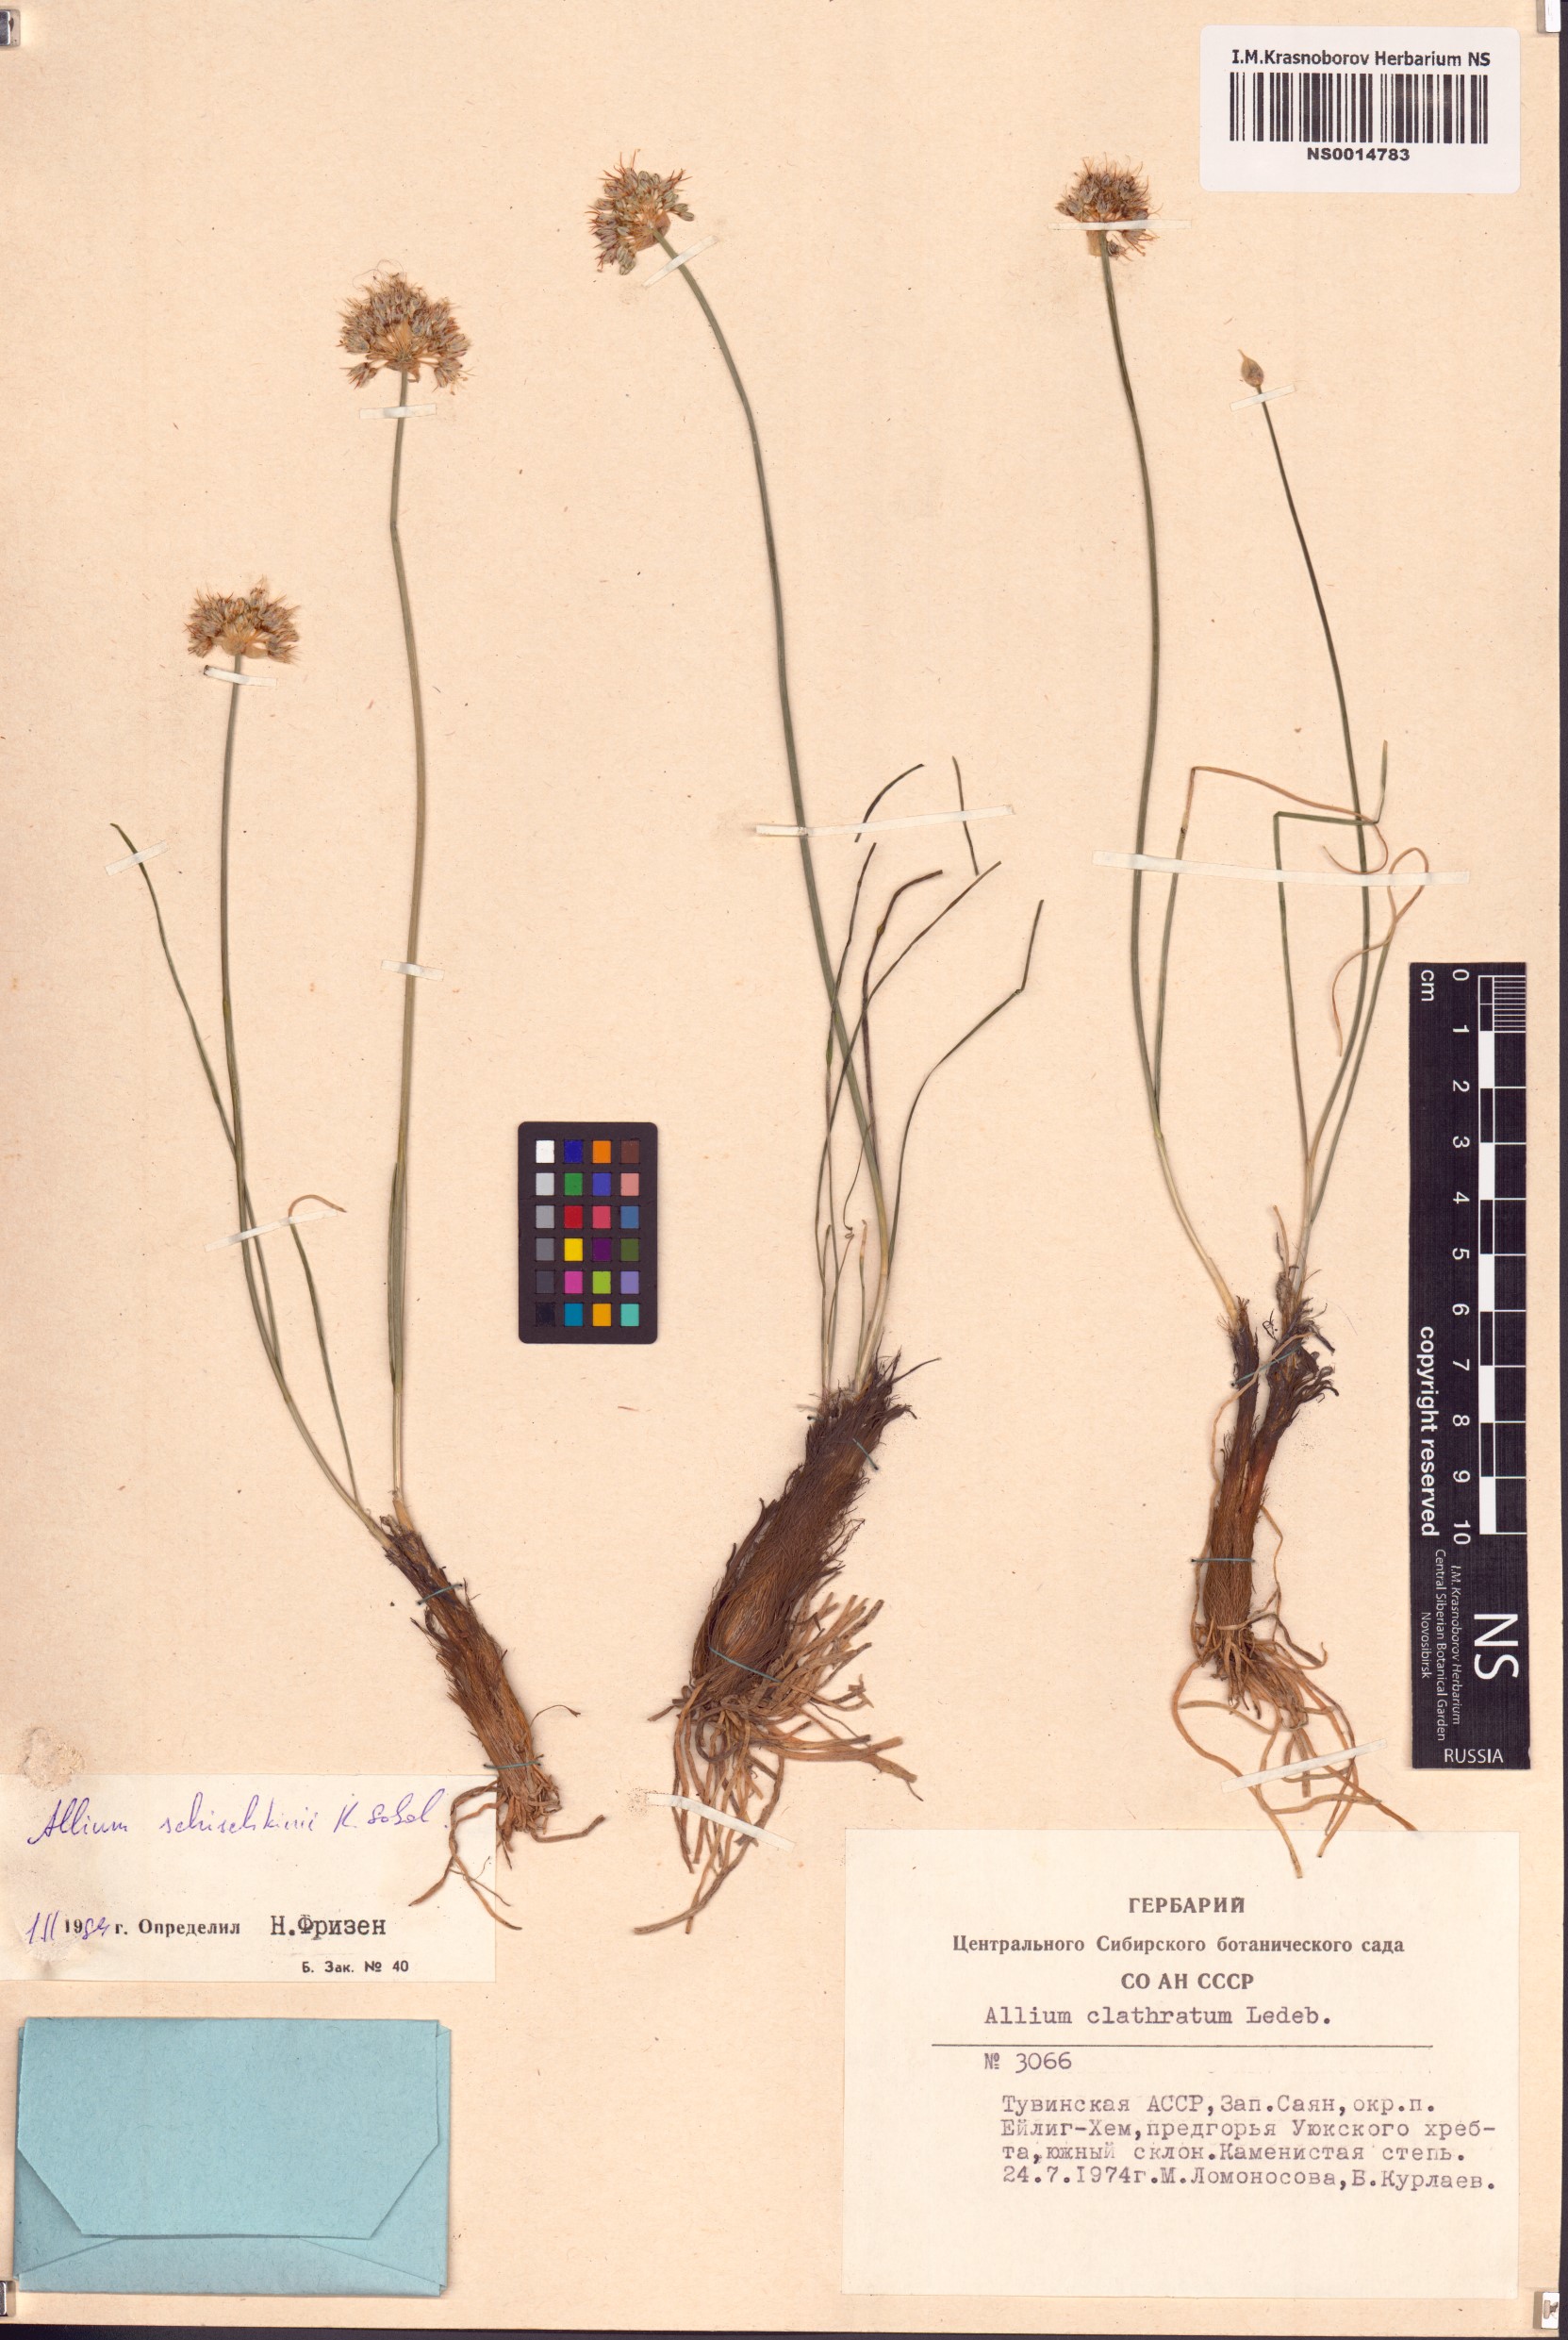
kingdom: Plantae
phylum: Tracheophyta
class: Liliopsida
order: Asparagales
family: Amaryllidaceae
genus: Allium
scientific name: Allium schischkinii
